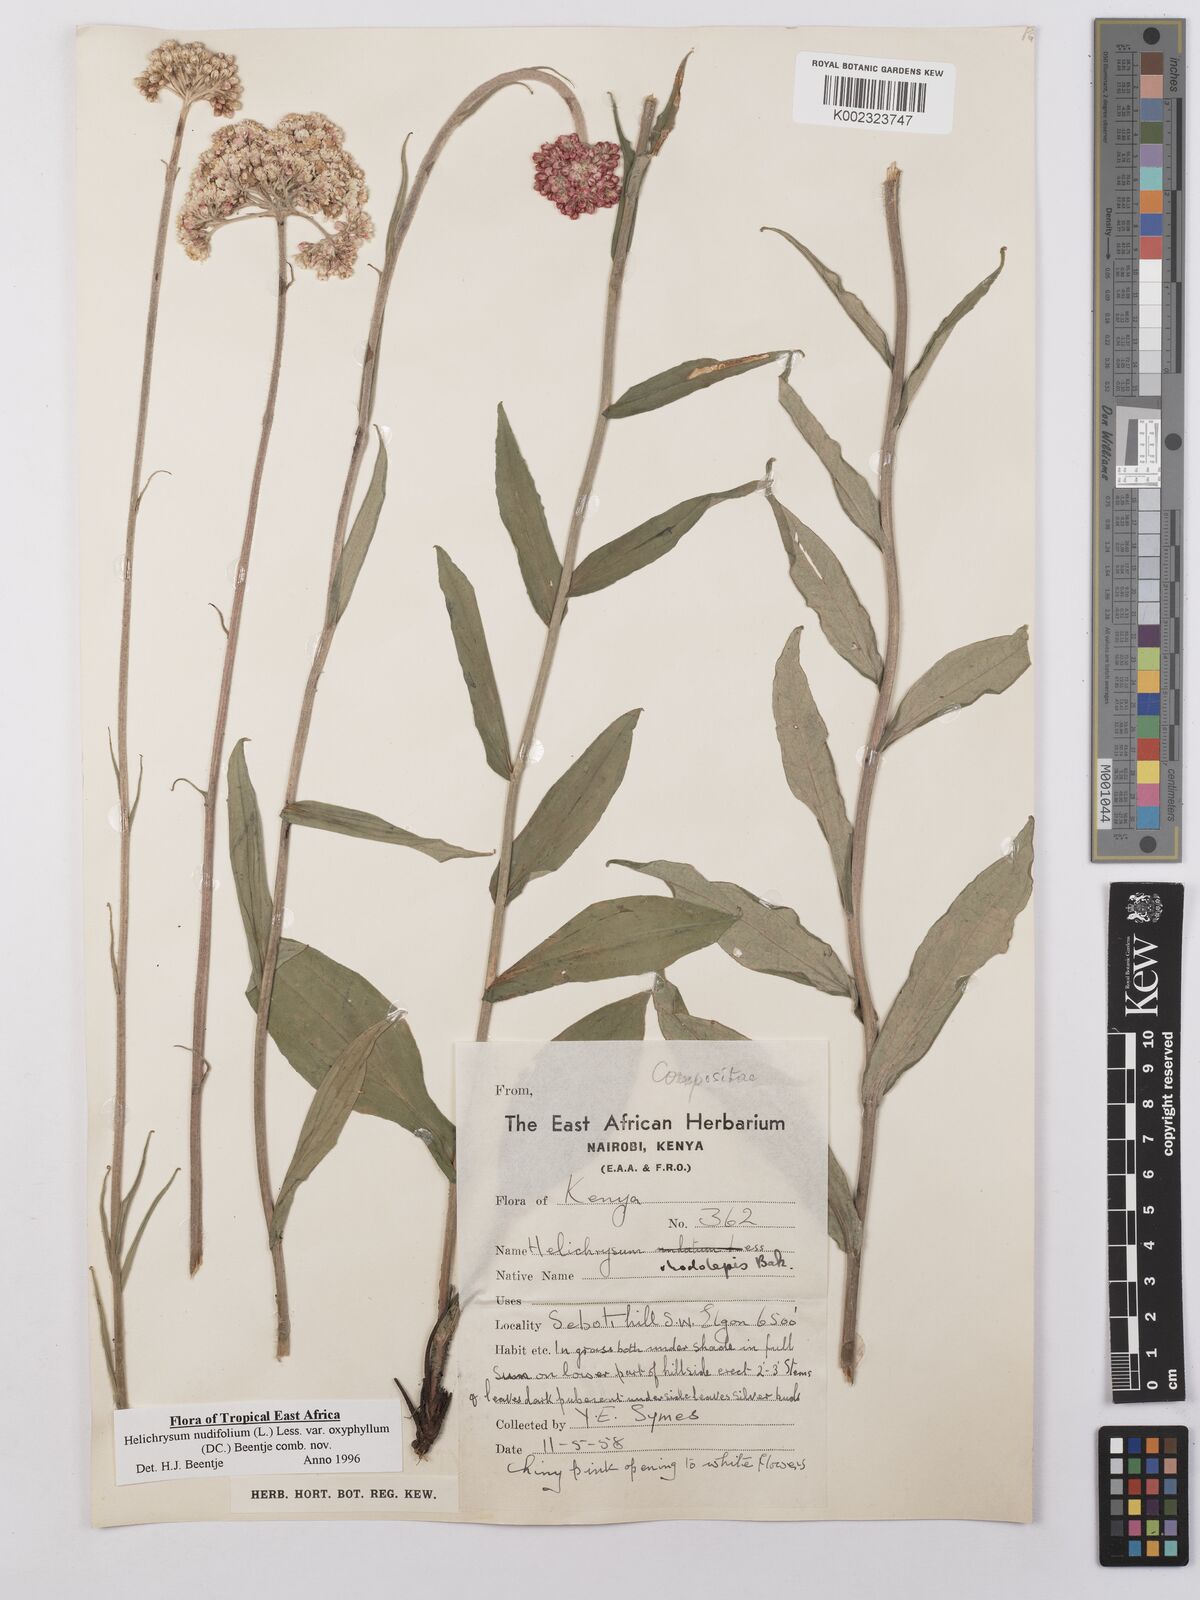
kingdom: Plantae
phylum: Tracheophyta
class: Magnoliopsida
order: Asterales
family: Asteraceae
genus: Helichrysum
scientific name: Helichrysum nudifolium
